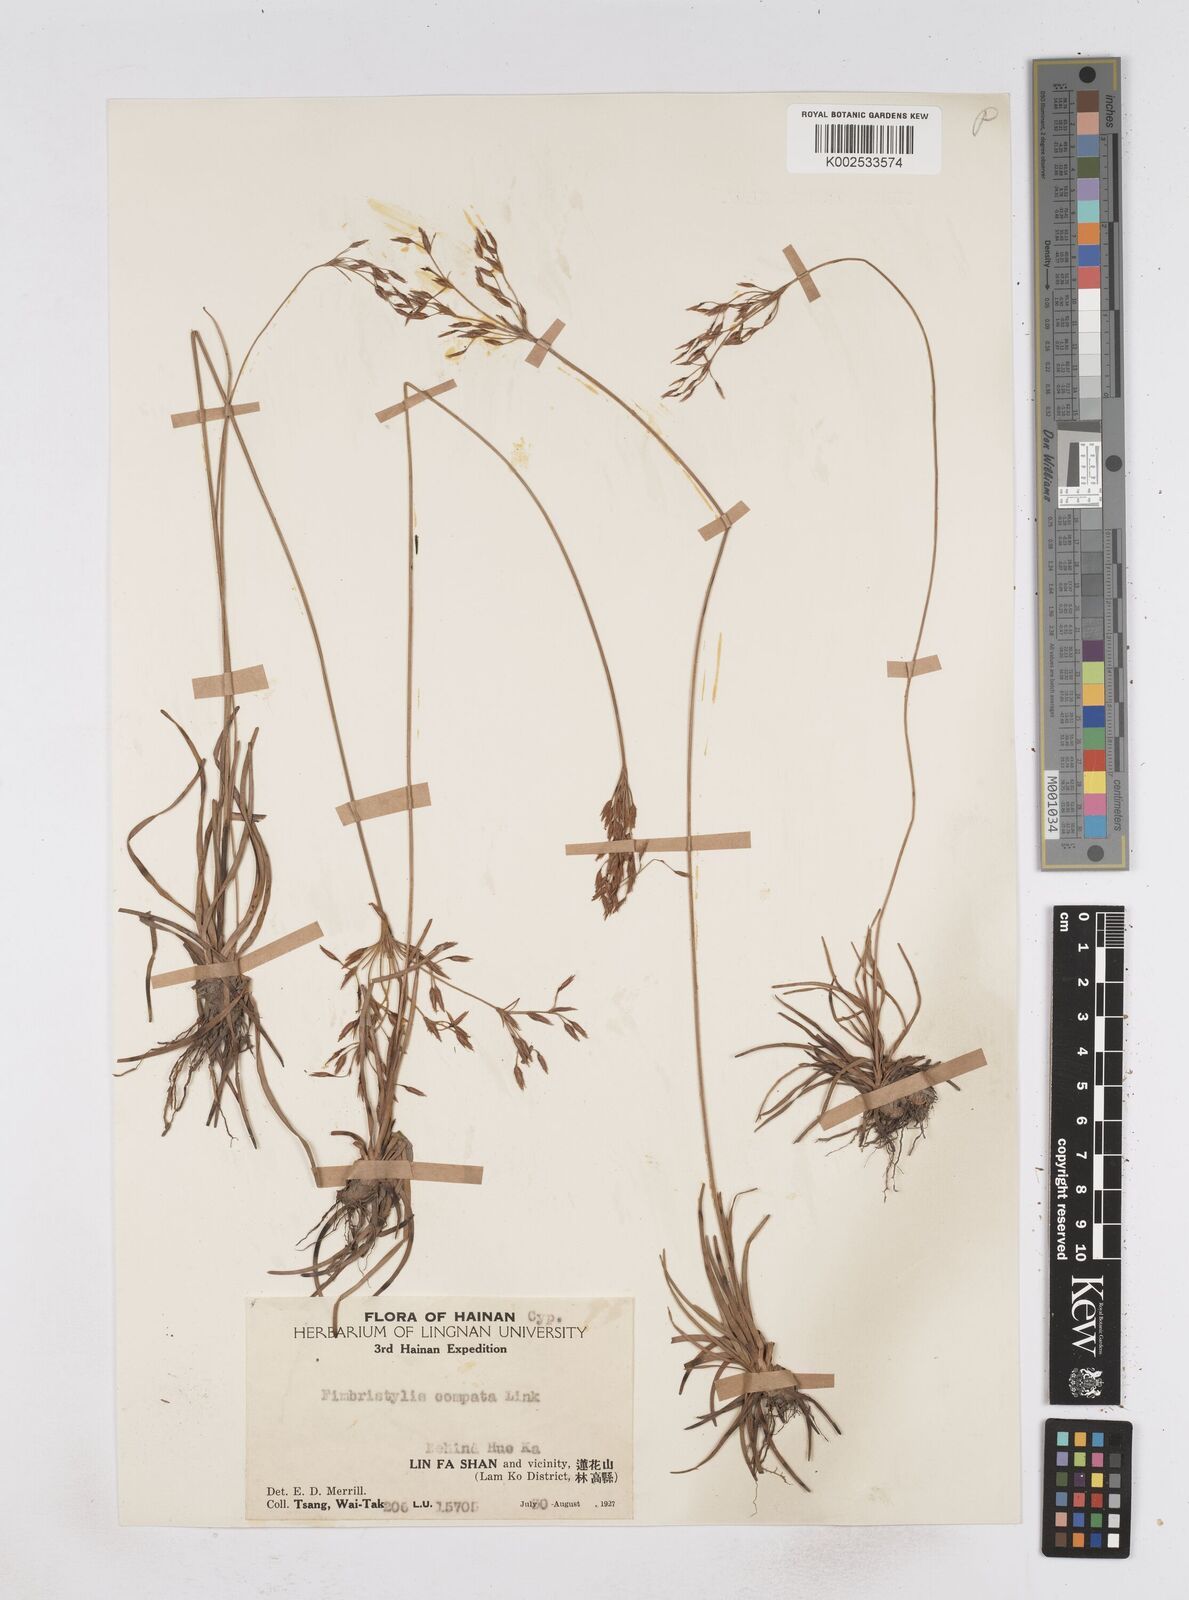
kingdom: Plantae
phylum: Tracheophyta
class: Liliopsida
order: Poales
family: Cyperaceae
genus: Fimbristylis
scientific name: Fimbristylis thomsonii
